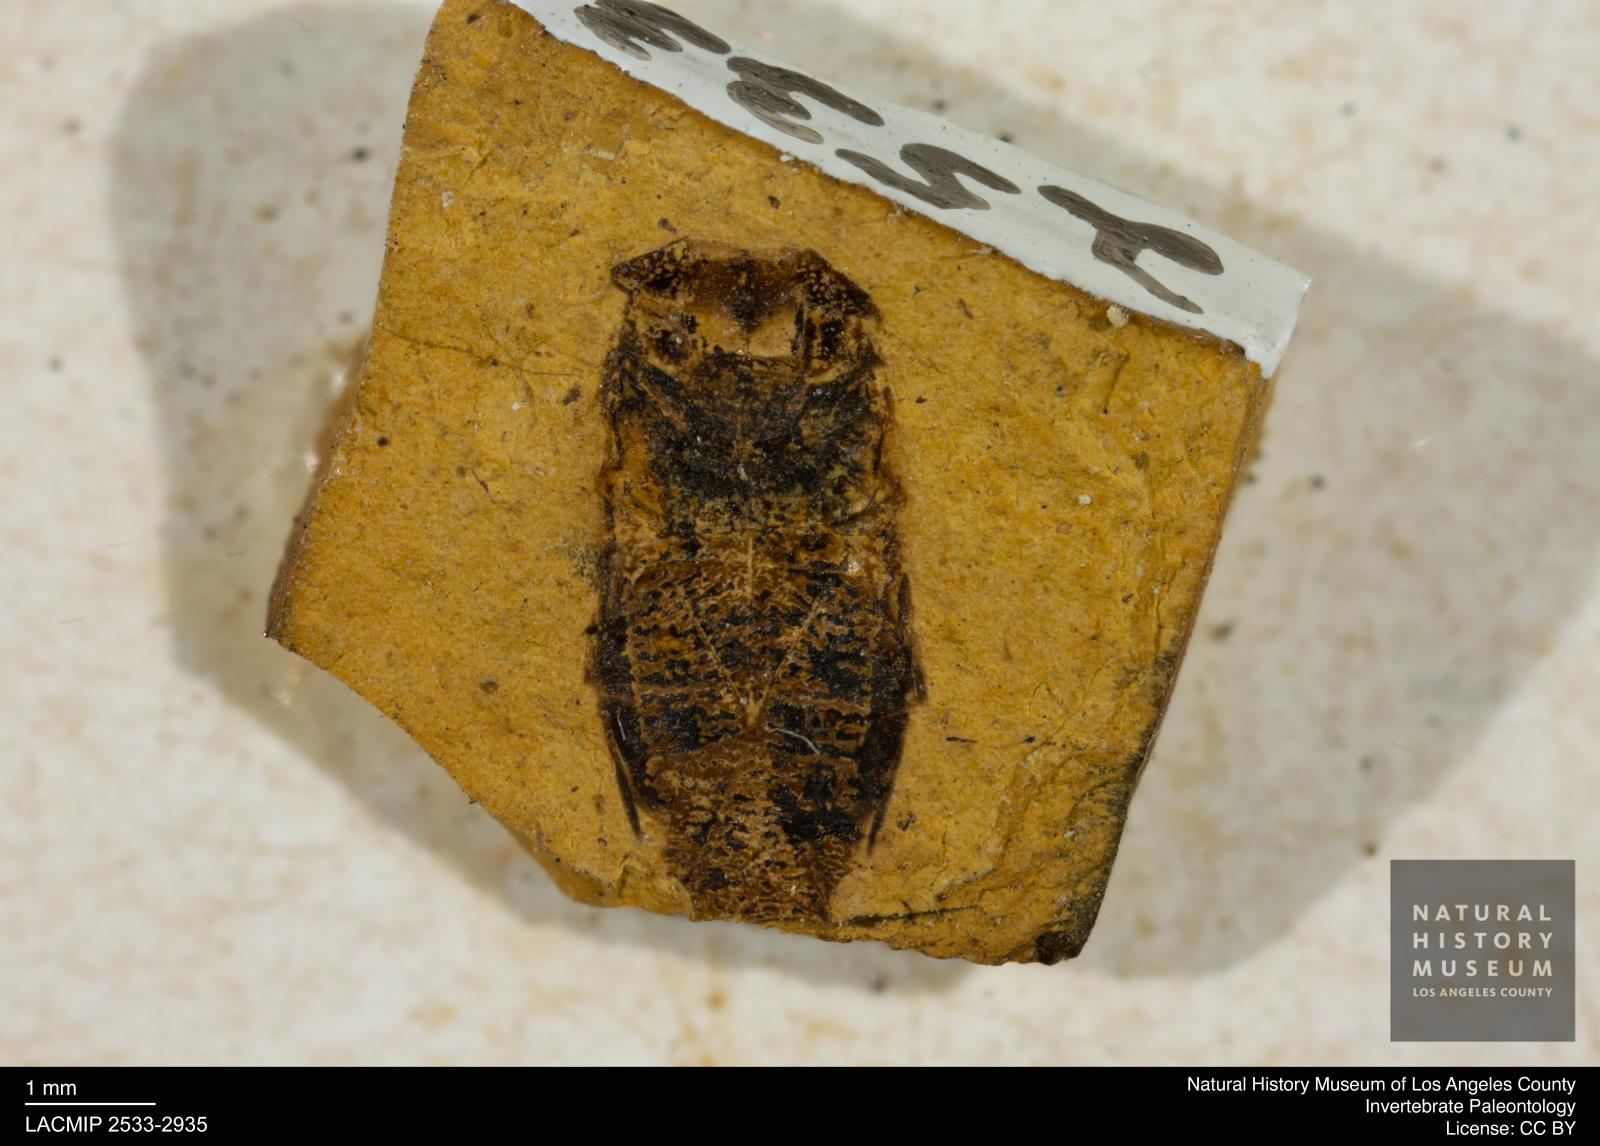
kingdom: Animalia
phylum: Arthropoda
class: Insecta
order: Hemiptera
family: Corixidae
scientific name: Corixidae
